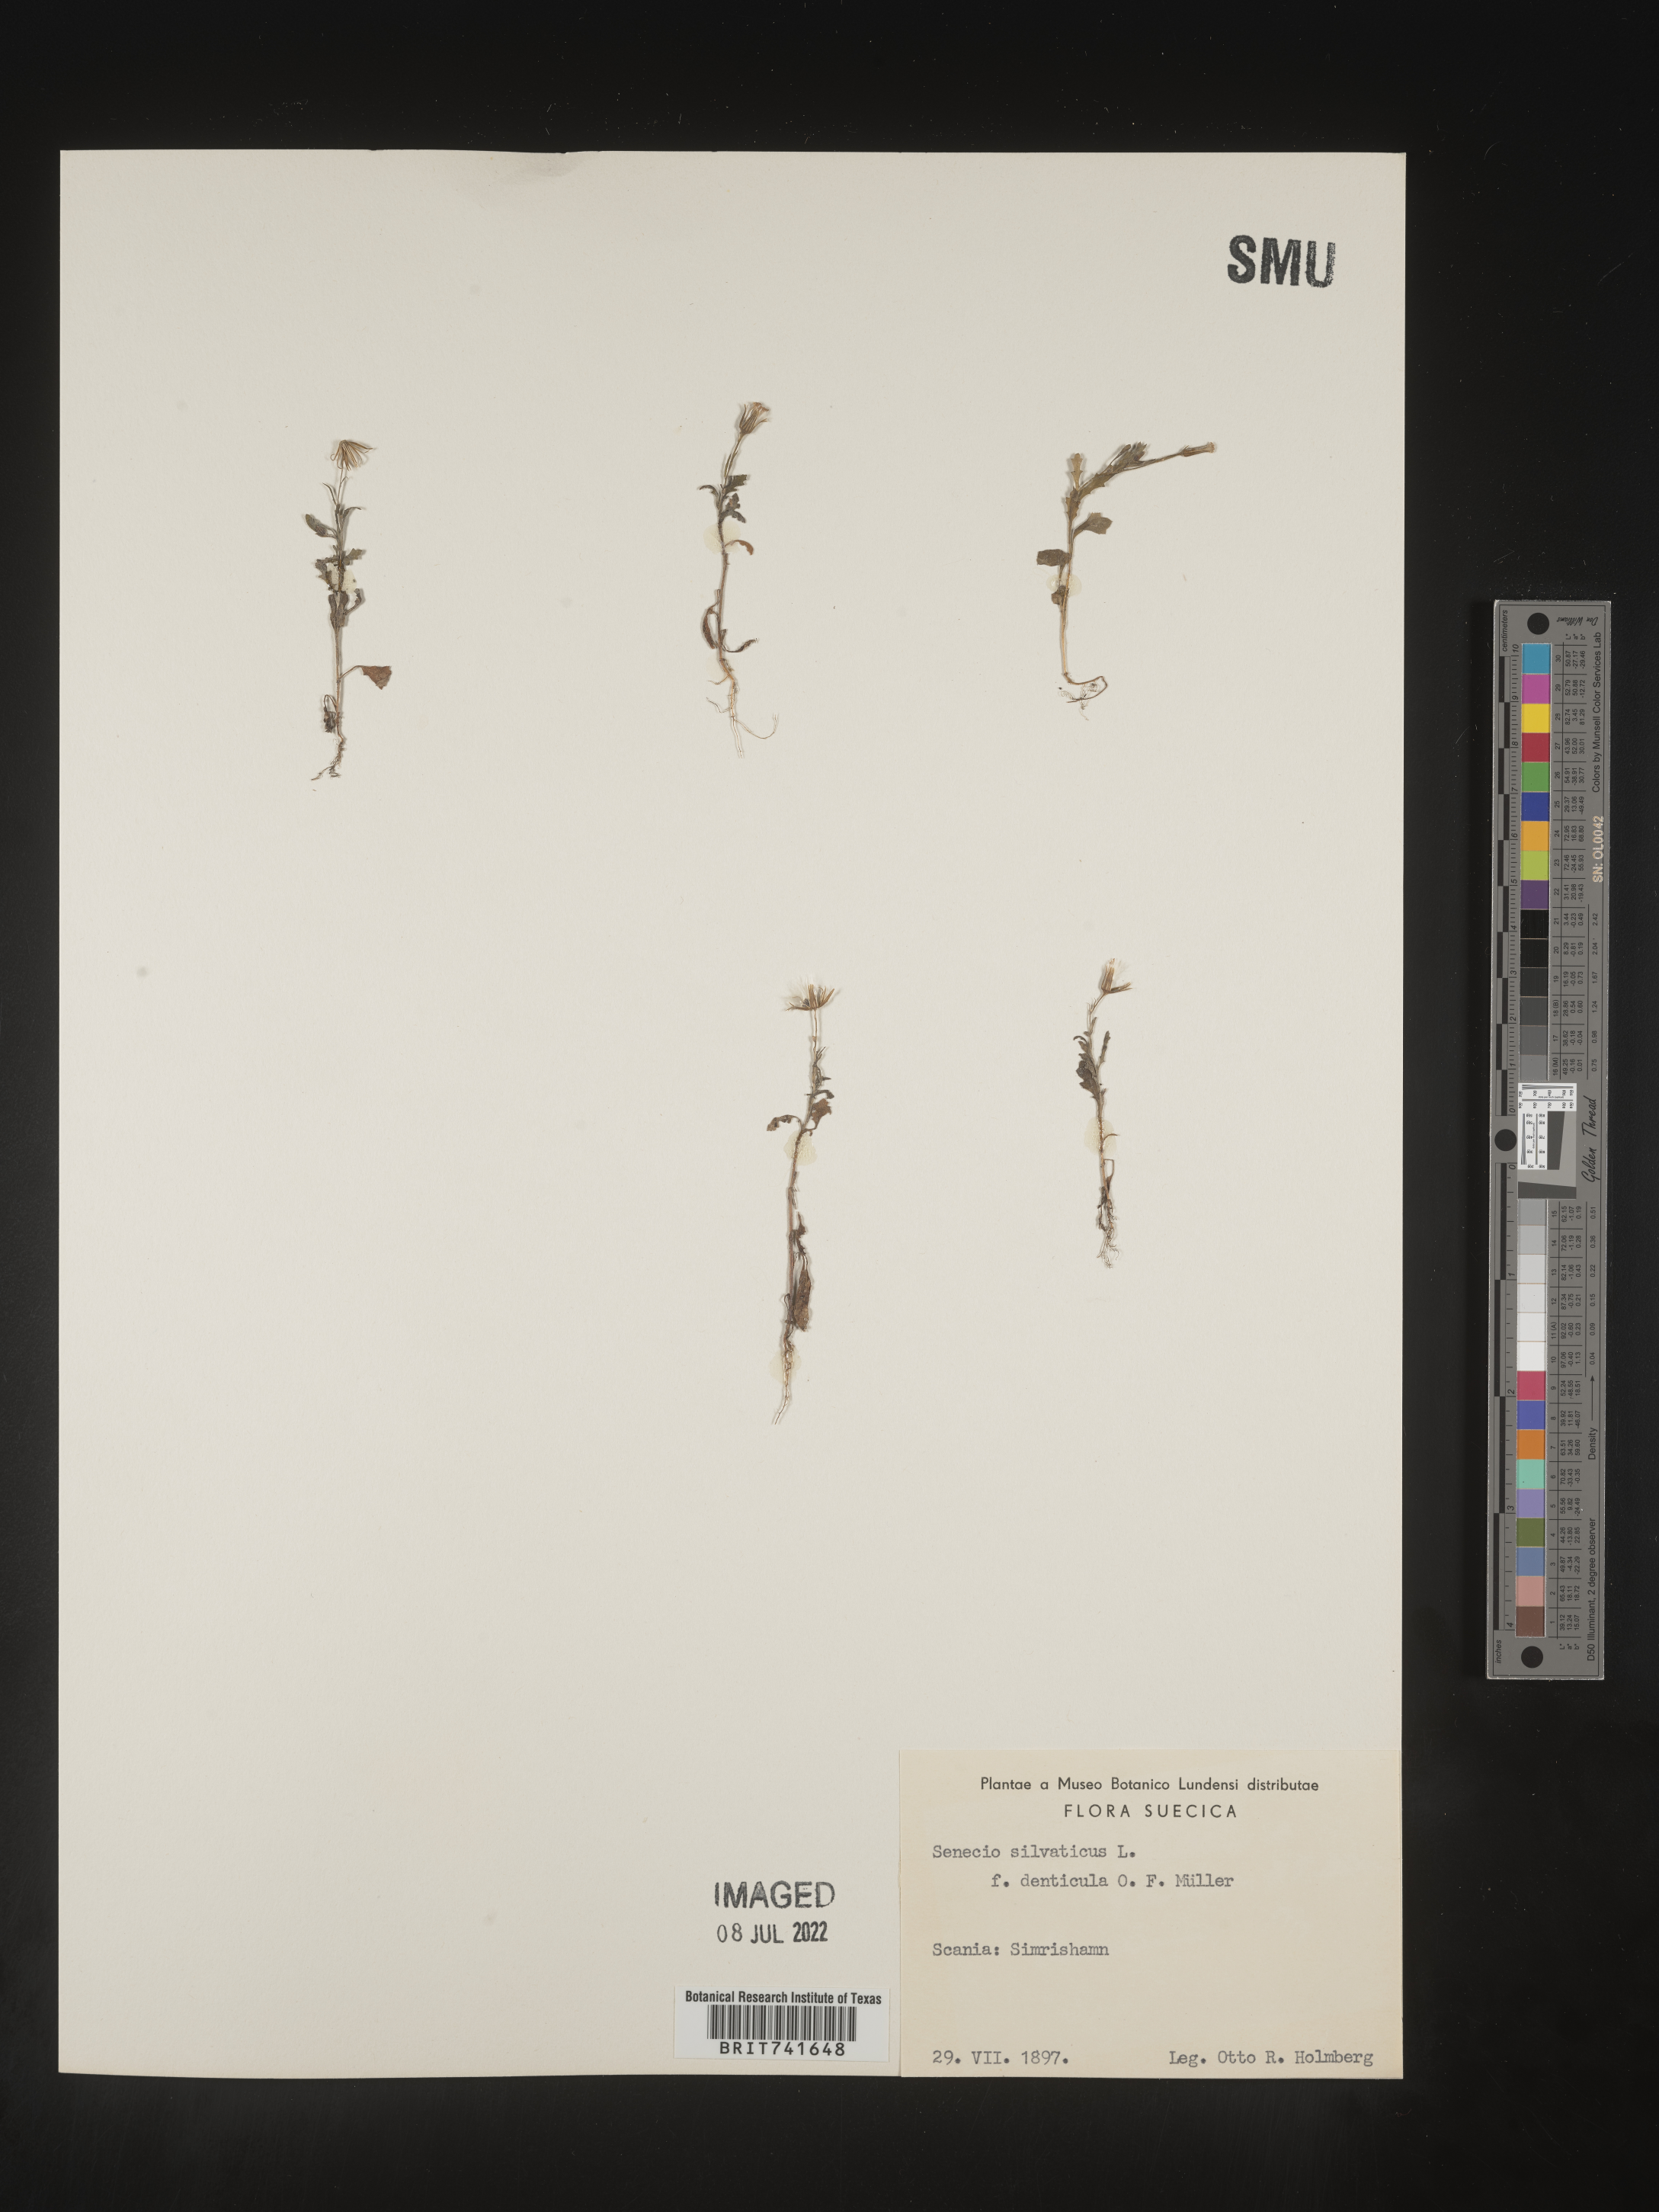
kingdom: Plantae
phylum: Tracheophyta
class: Magnoliopsida
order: Asterales
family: Asteraceae
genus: Senecio
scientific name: Senecio
